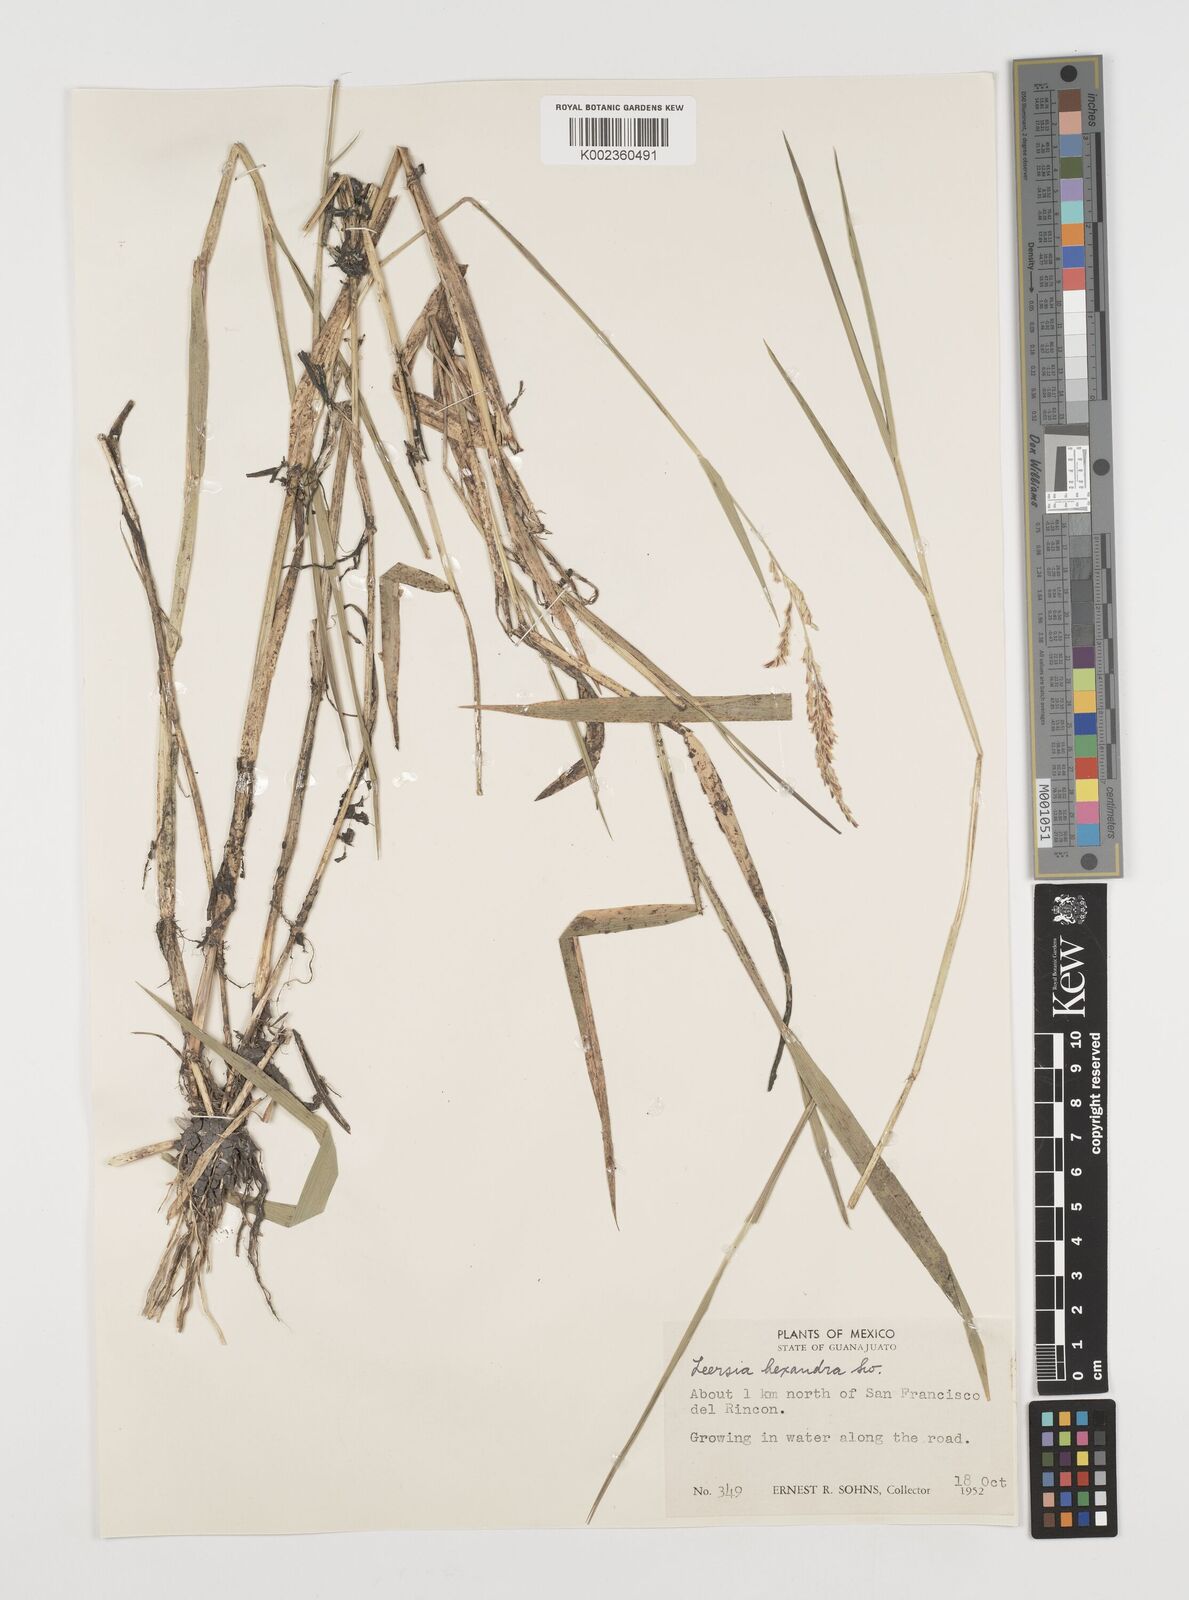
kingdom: Plantae
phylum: Tracheophyta
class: Liliopsida
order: Poales
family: Poaceae
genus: Leersia
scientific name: Leersia hexandra
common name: Southern cut grass
